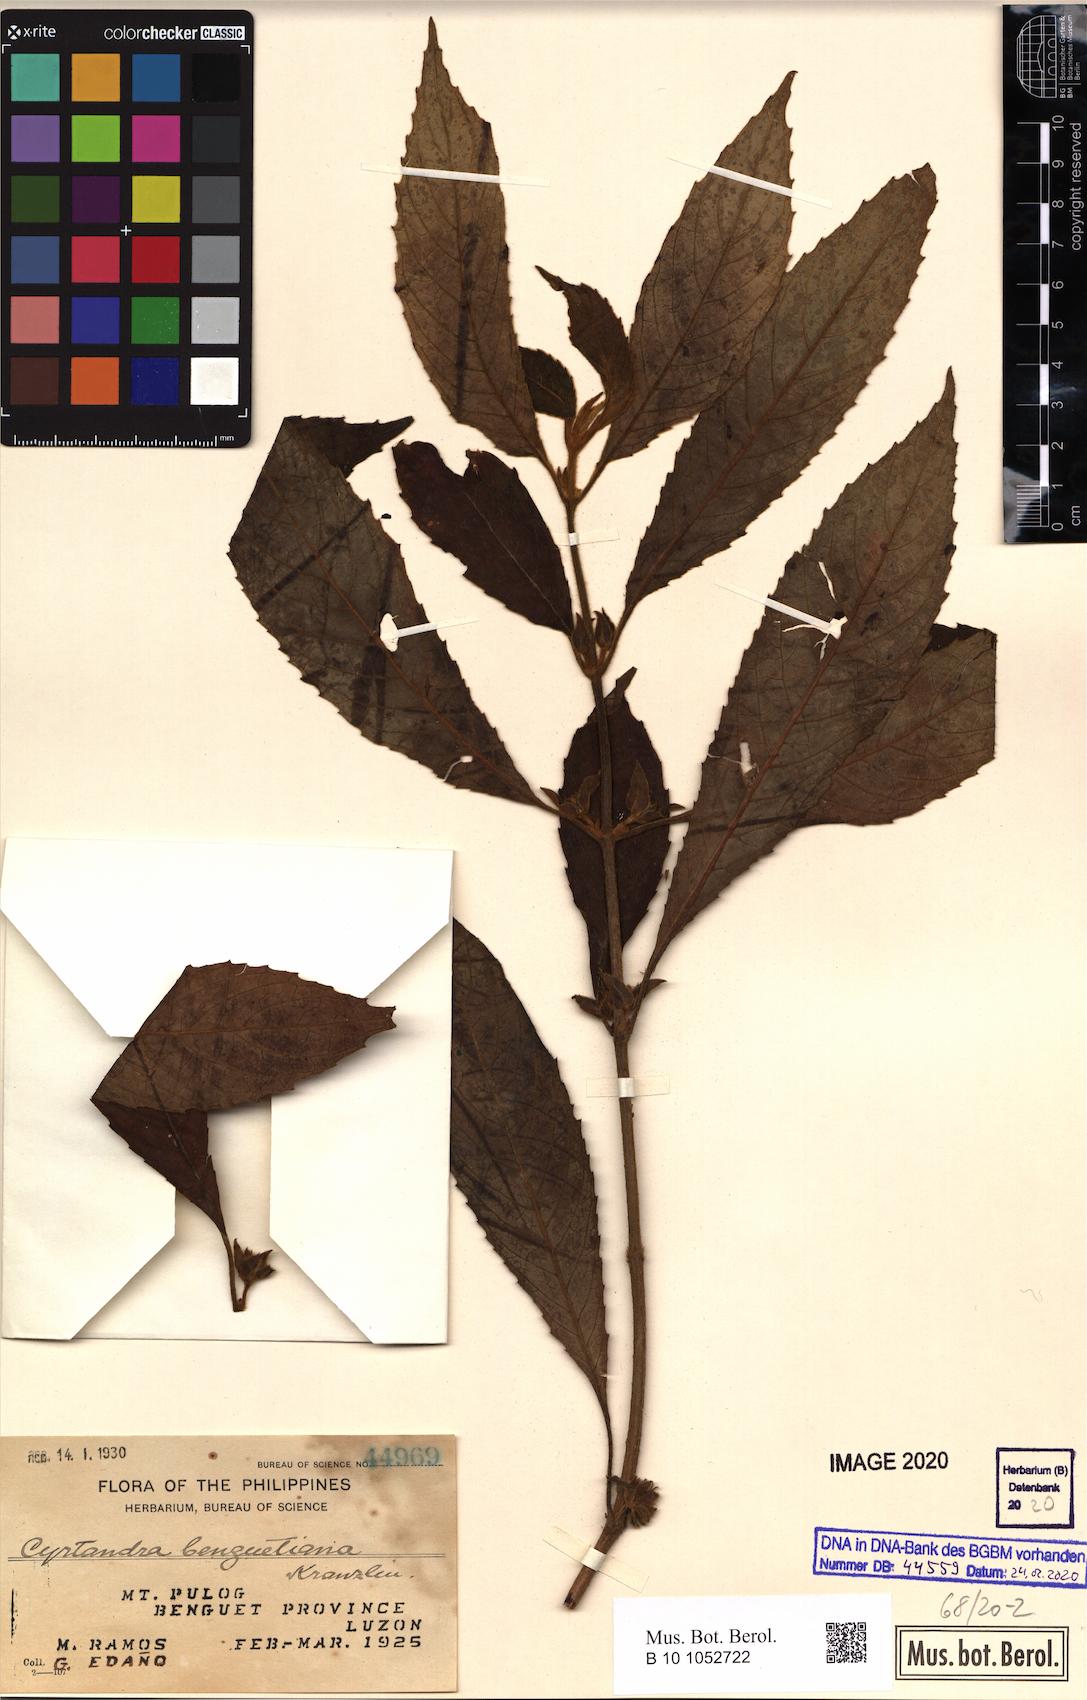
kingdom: Plantae
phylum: Tracheophyta
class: Magnoliopsida
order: Lamiales
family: Gesneriaceae
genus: Cyrtandra
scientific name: Cyrtandra benguetiana
